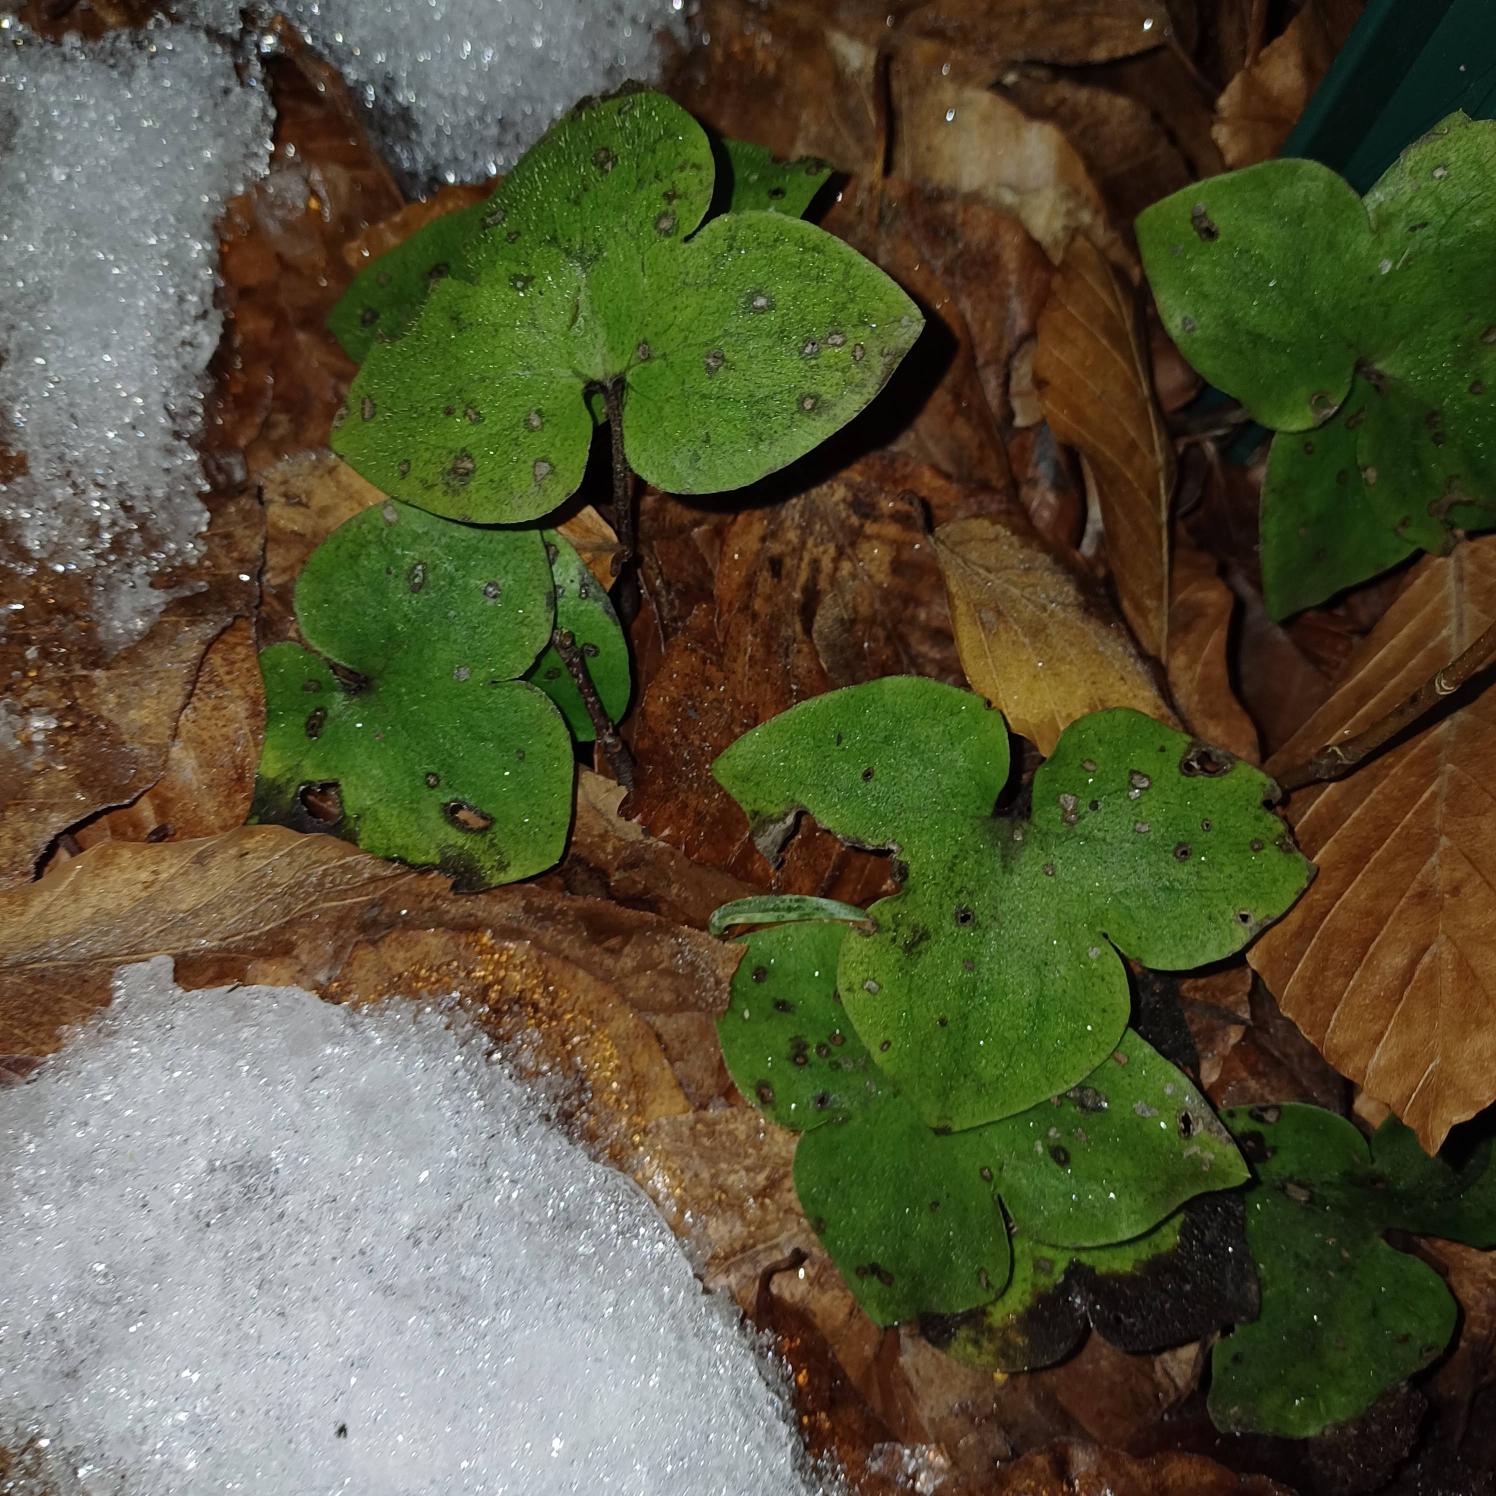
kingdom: Plantae
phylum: Tracheophyta
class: Magnoliopsida
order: Ranunculales
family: Ranunculaceae
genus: Hepatica
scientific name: Hepatica nobilis
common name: Blå anemone
